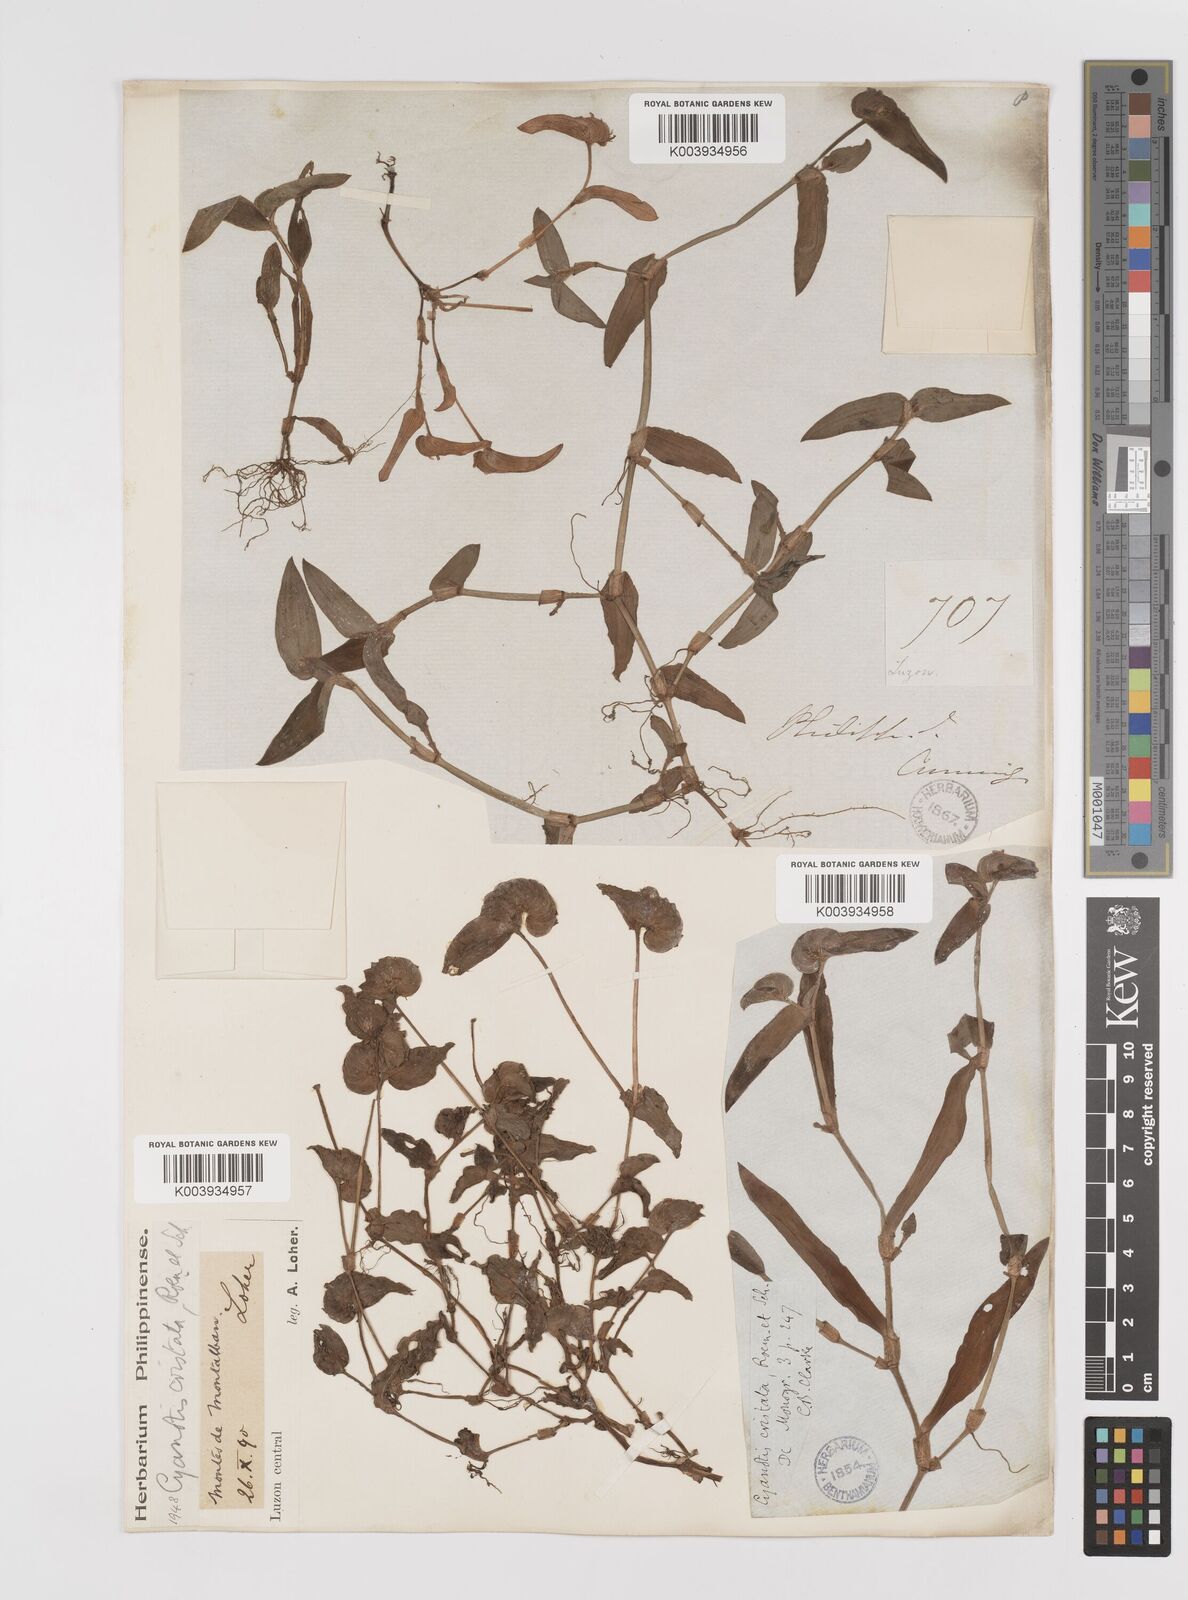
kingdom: Plantae
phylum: Tracheophyta
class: Liliopsida
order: Commelinales
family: Commelinaceae
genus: Cyanotis
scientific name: Cyanotis cristata
